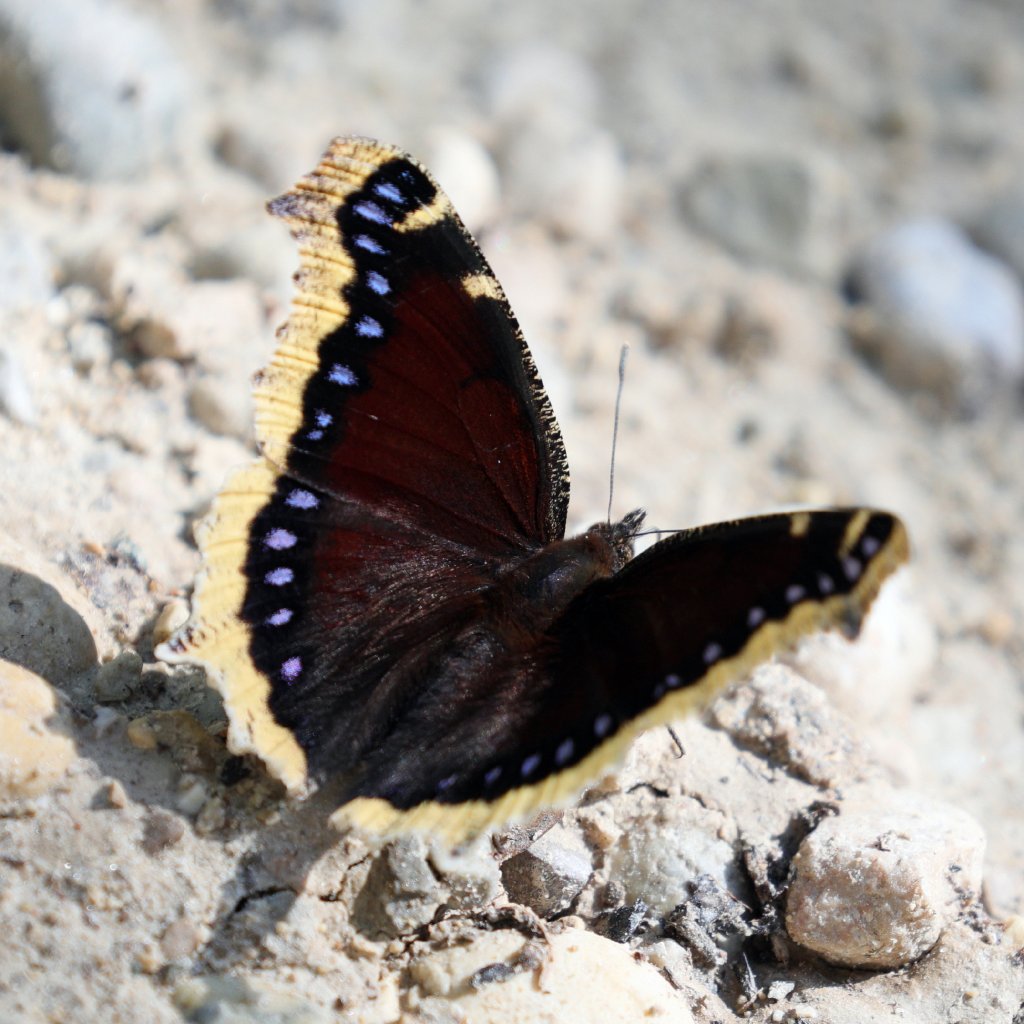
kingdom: Animalia
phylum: Arthropoda
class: Insecta
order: Lepidoptera
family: Nymphalidae
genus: Nymphalis
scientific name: Nymphalis antiopa
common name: Mourning Cloak
